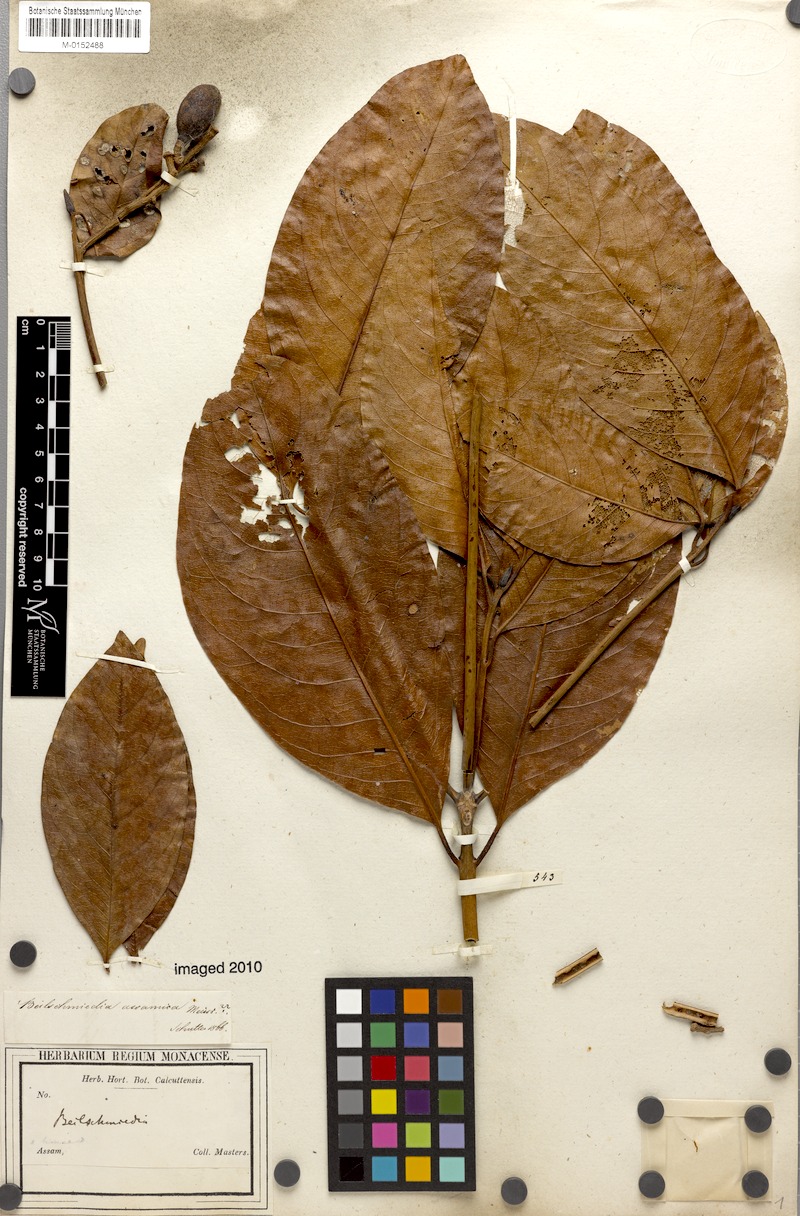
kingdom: Plantae
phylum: Tracheophyta
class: Magnoliopsida
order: Laurales
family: Lauraceae
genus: Beilschmiedia
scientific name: Beilschmiedia assamica
